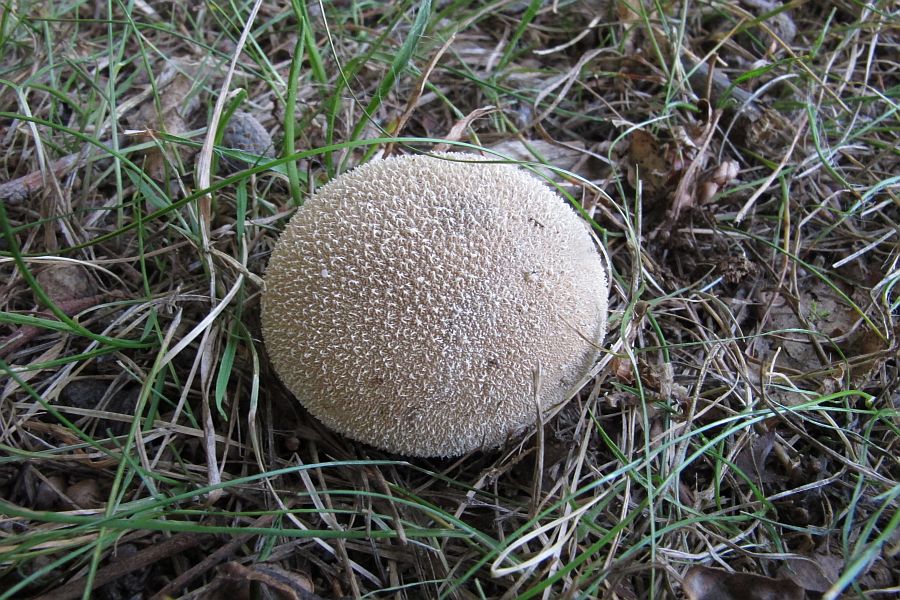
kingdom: Fungi
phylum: Basidiomycota
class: Agaricomycetes
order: Agaricales
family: Lycoperdaceae
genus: Lycoperdon
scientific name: Lycoperdon decipiens
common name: rod-støvbold
